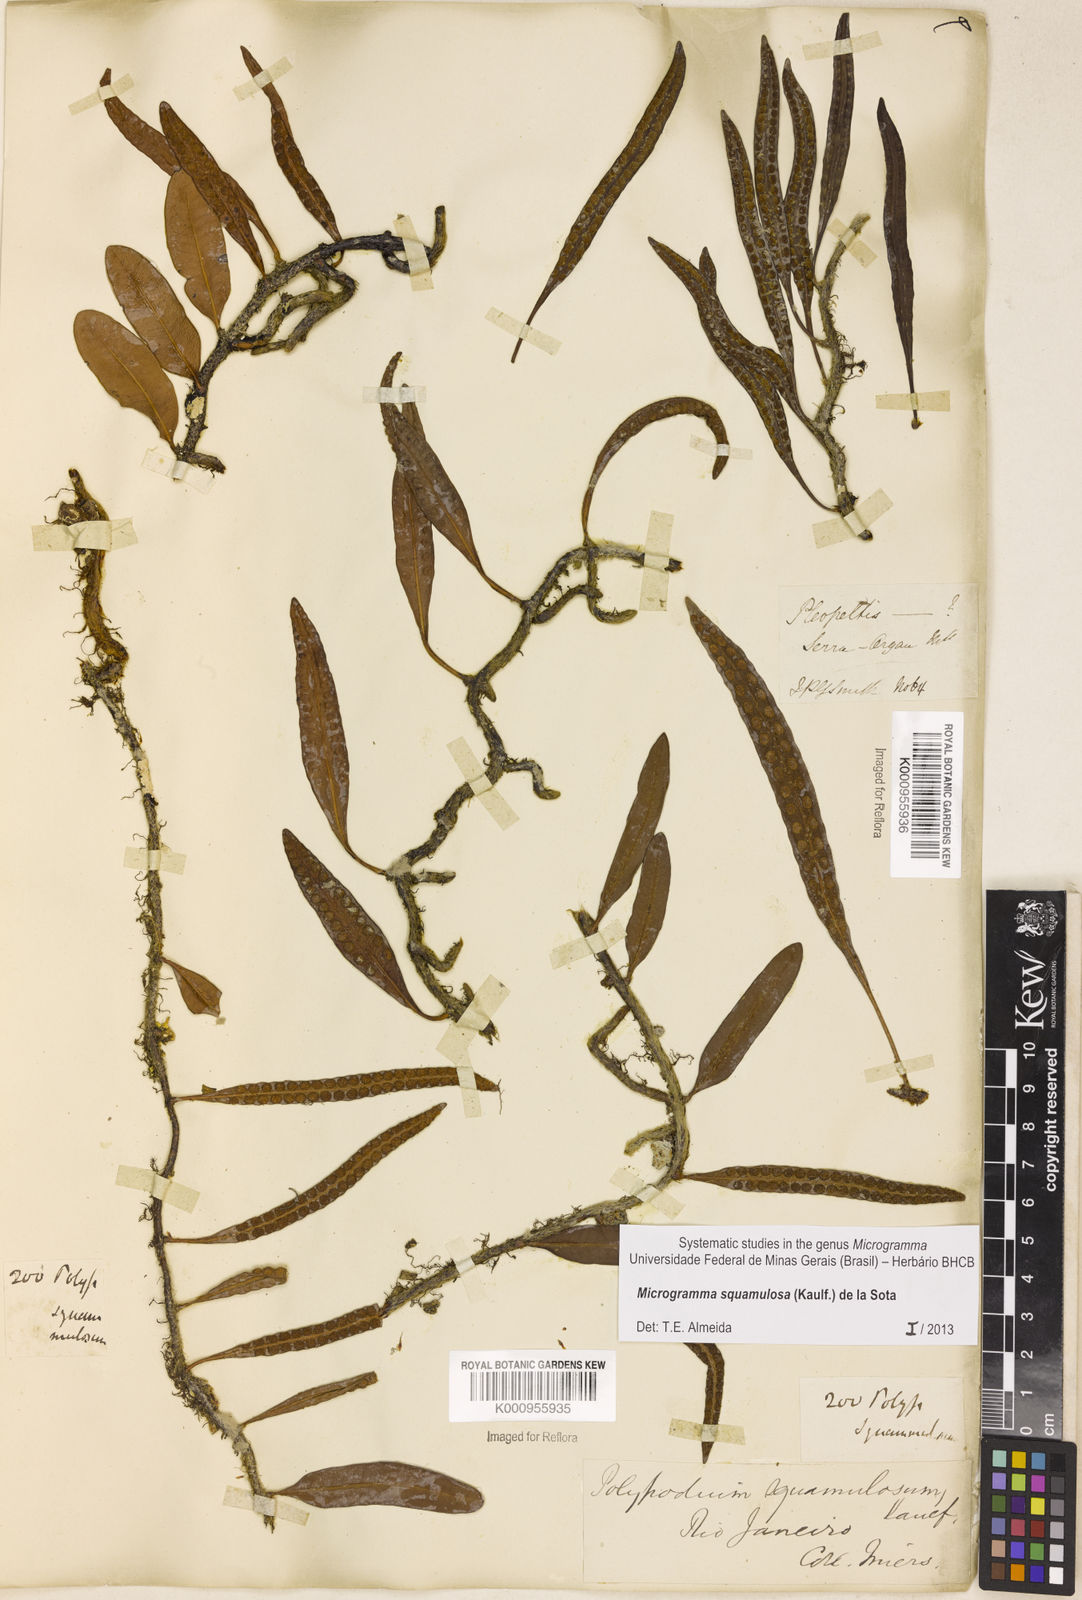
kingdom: Plantae
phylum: Tracheophyta
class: Polypodiopsida
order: Polypodiales
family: Polypodiaceae
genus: Microgramma
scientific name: Microgramma squamulosa
